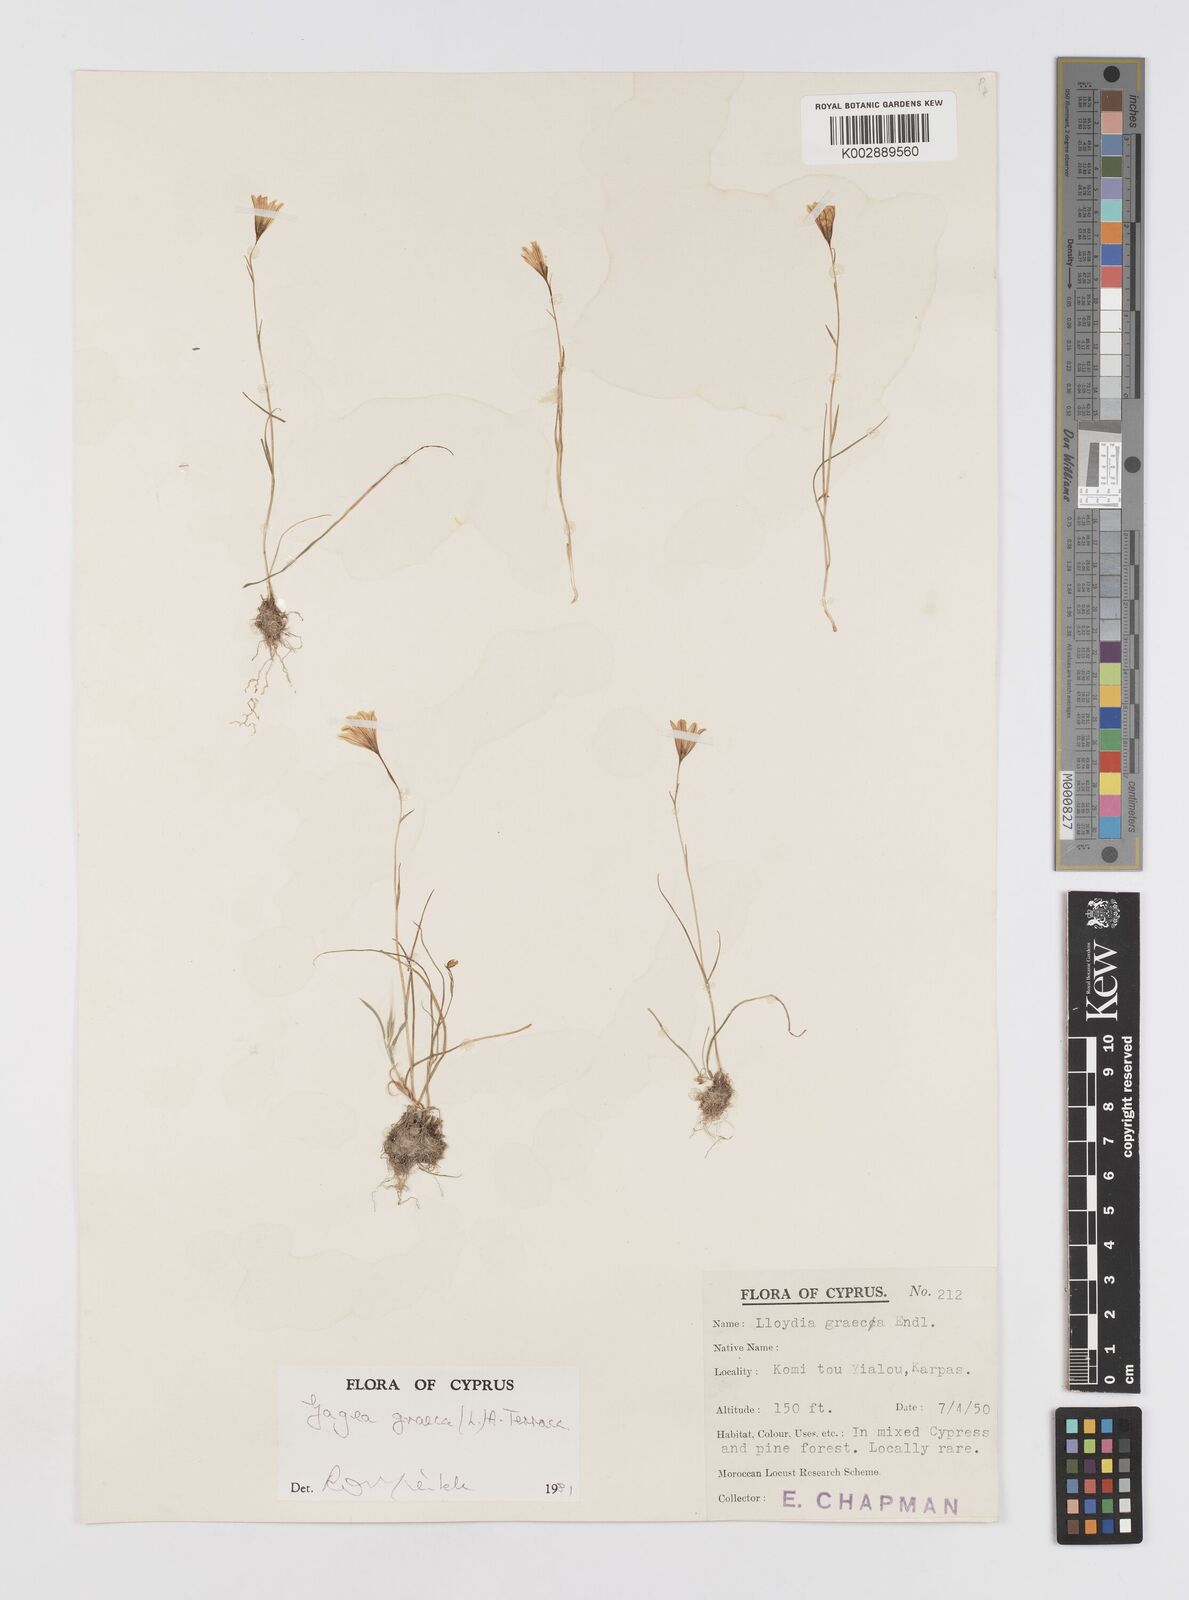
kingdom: Plantae
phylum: Tracheophyta
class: Liliopsida
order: Liliales
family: Liliaceae
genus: Gagea
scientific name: Gagea graeca
